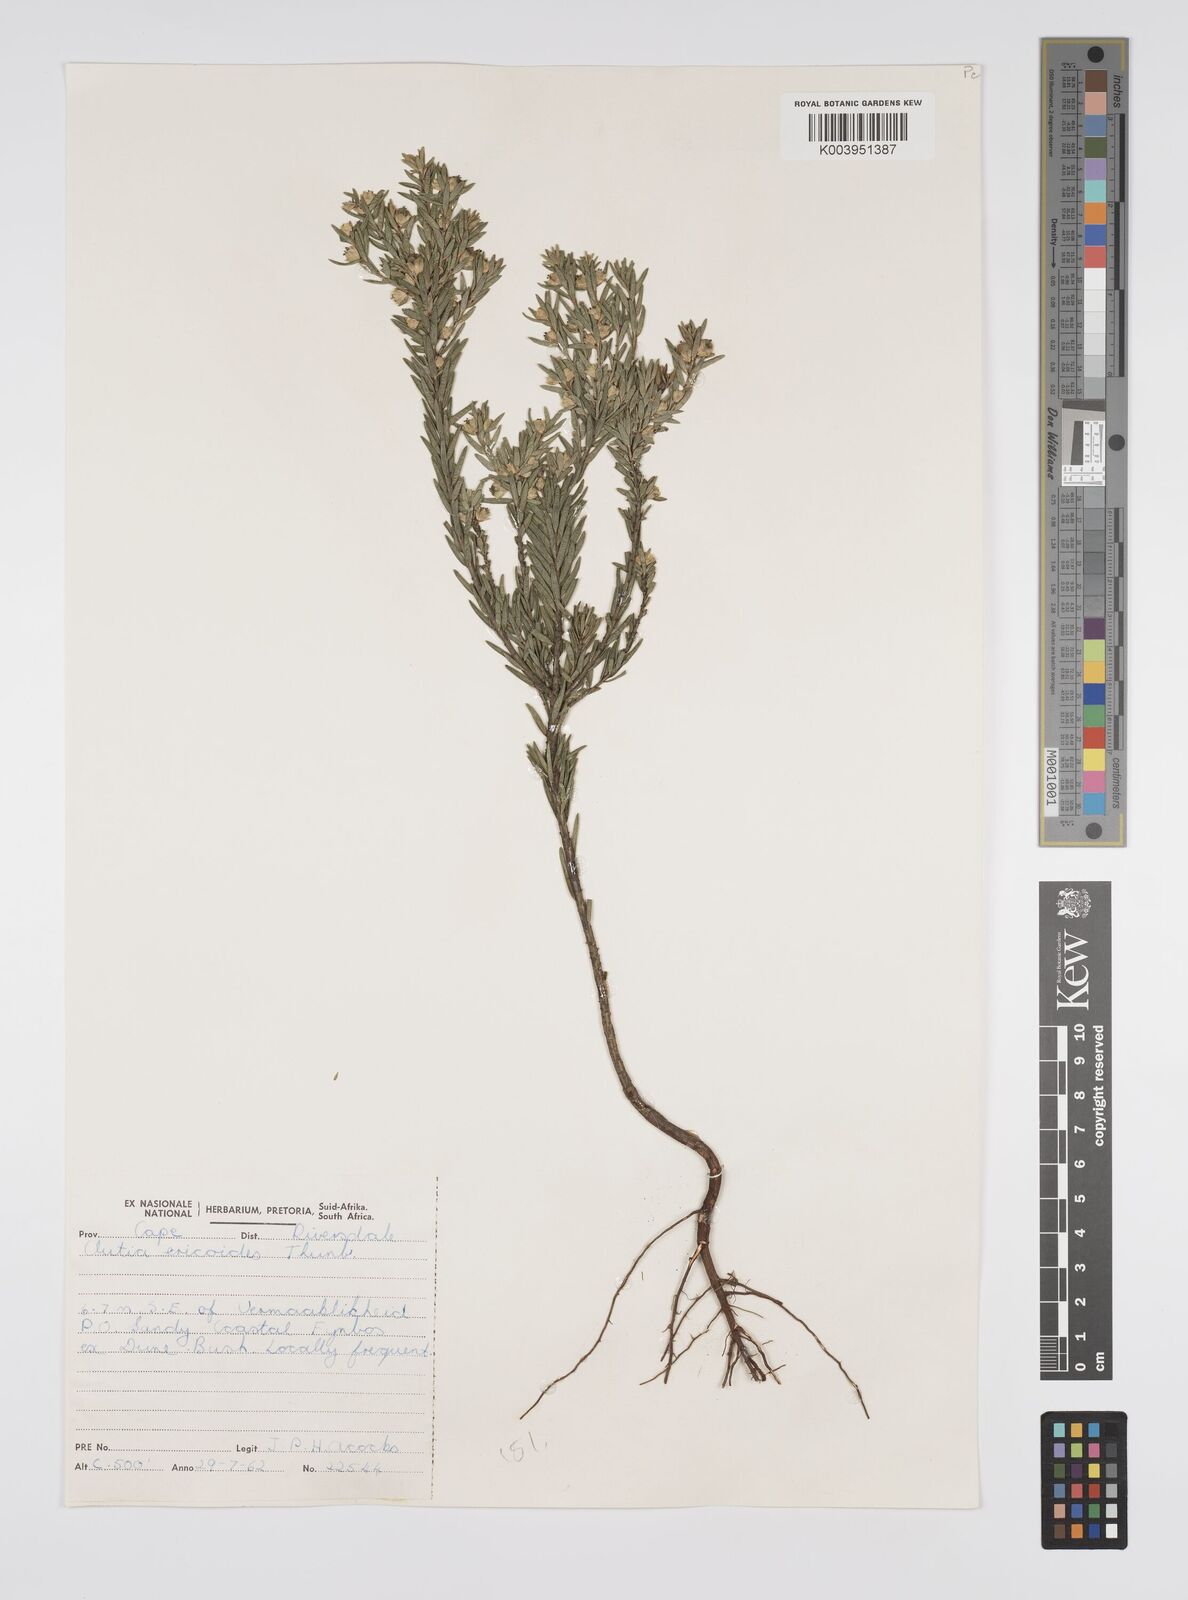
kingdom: Plantae
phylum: Tracheophyta
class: Magnoliopsida
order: Malpighiales
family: Peraceae
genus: Clutia
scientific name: Clutia
